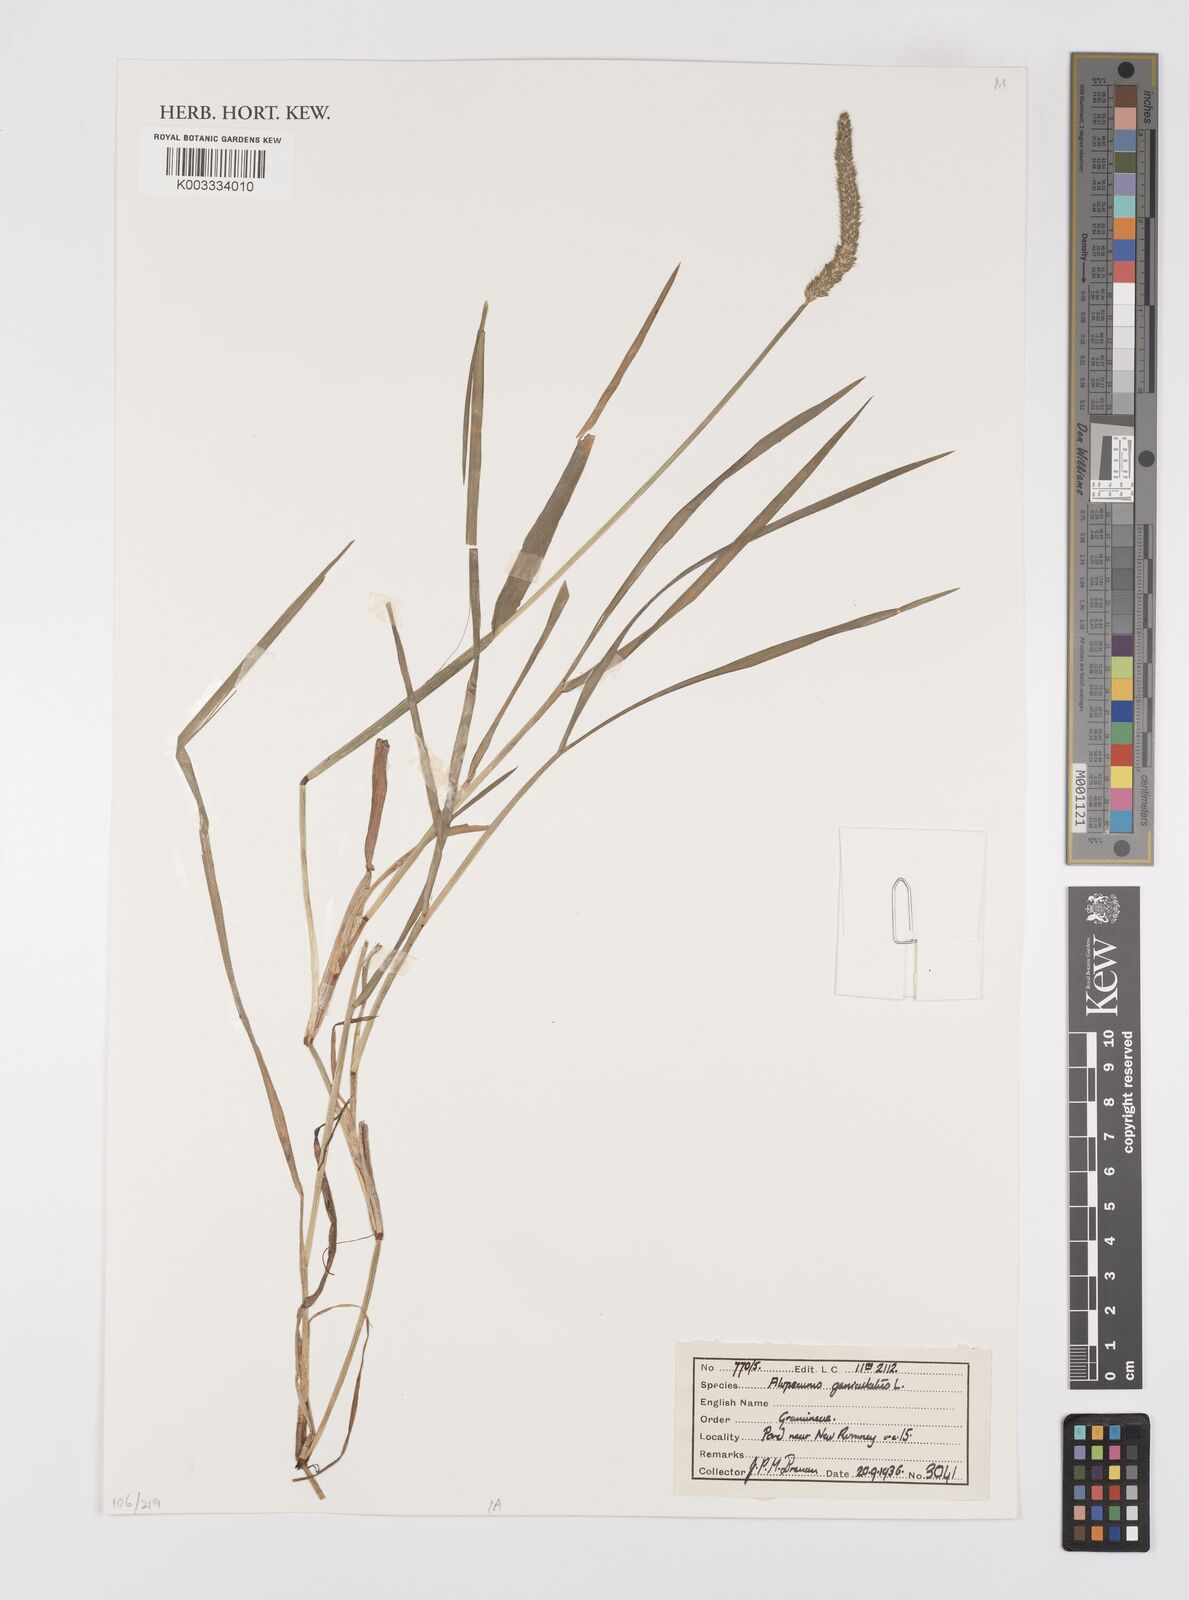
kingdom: Plantae
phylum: Tracheophyta
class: Liliopsida
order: Poales
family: Poaceae
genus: Alopecurus
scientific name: Alopecurus geniculatus
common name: Water foxtail
